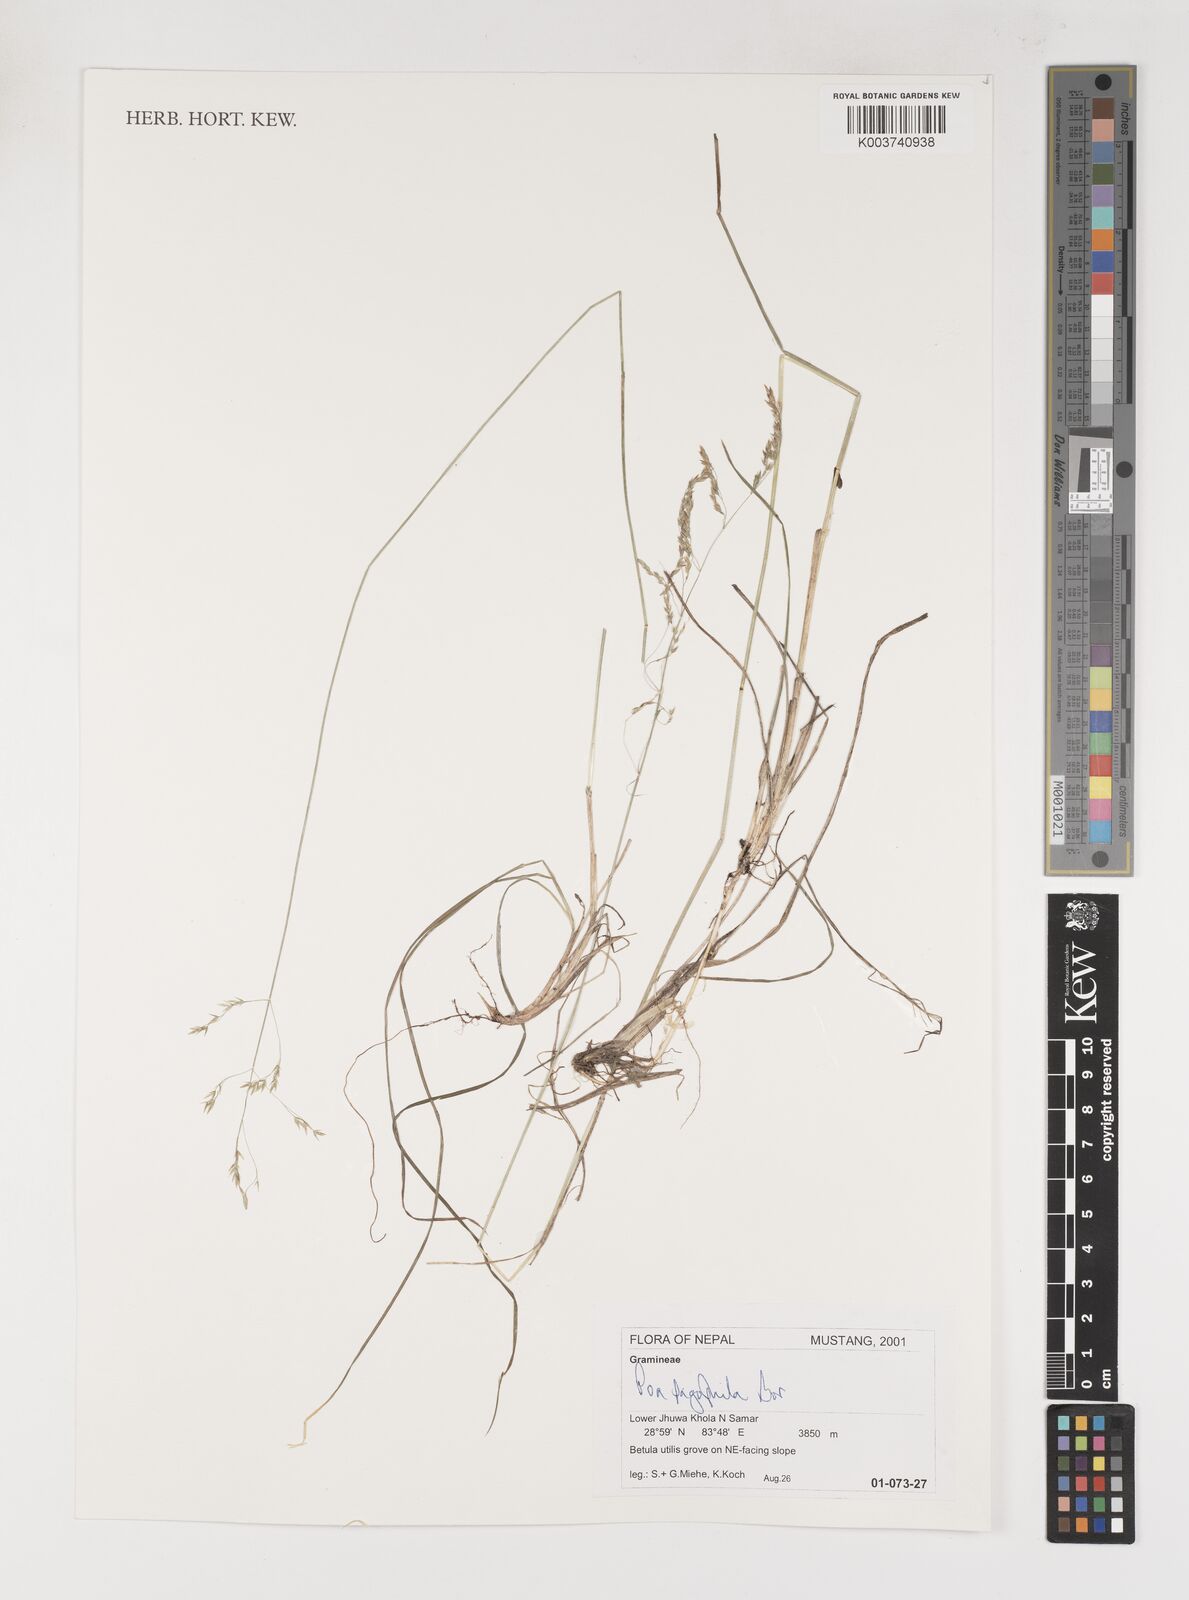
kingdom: Plantae
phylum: Tracheophyta
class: Liliopsida
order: Poales
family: Poaceae
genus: Poa
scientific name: Poa pagophila
